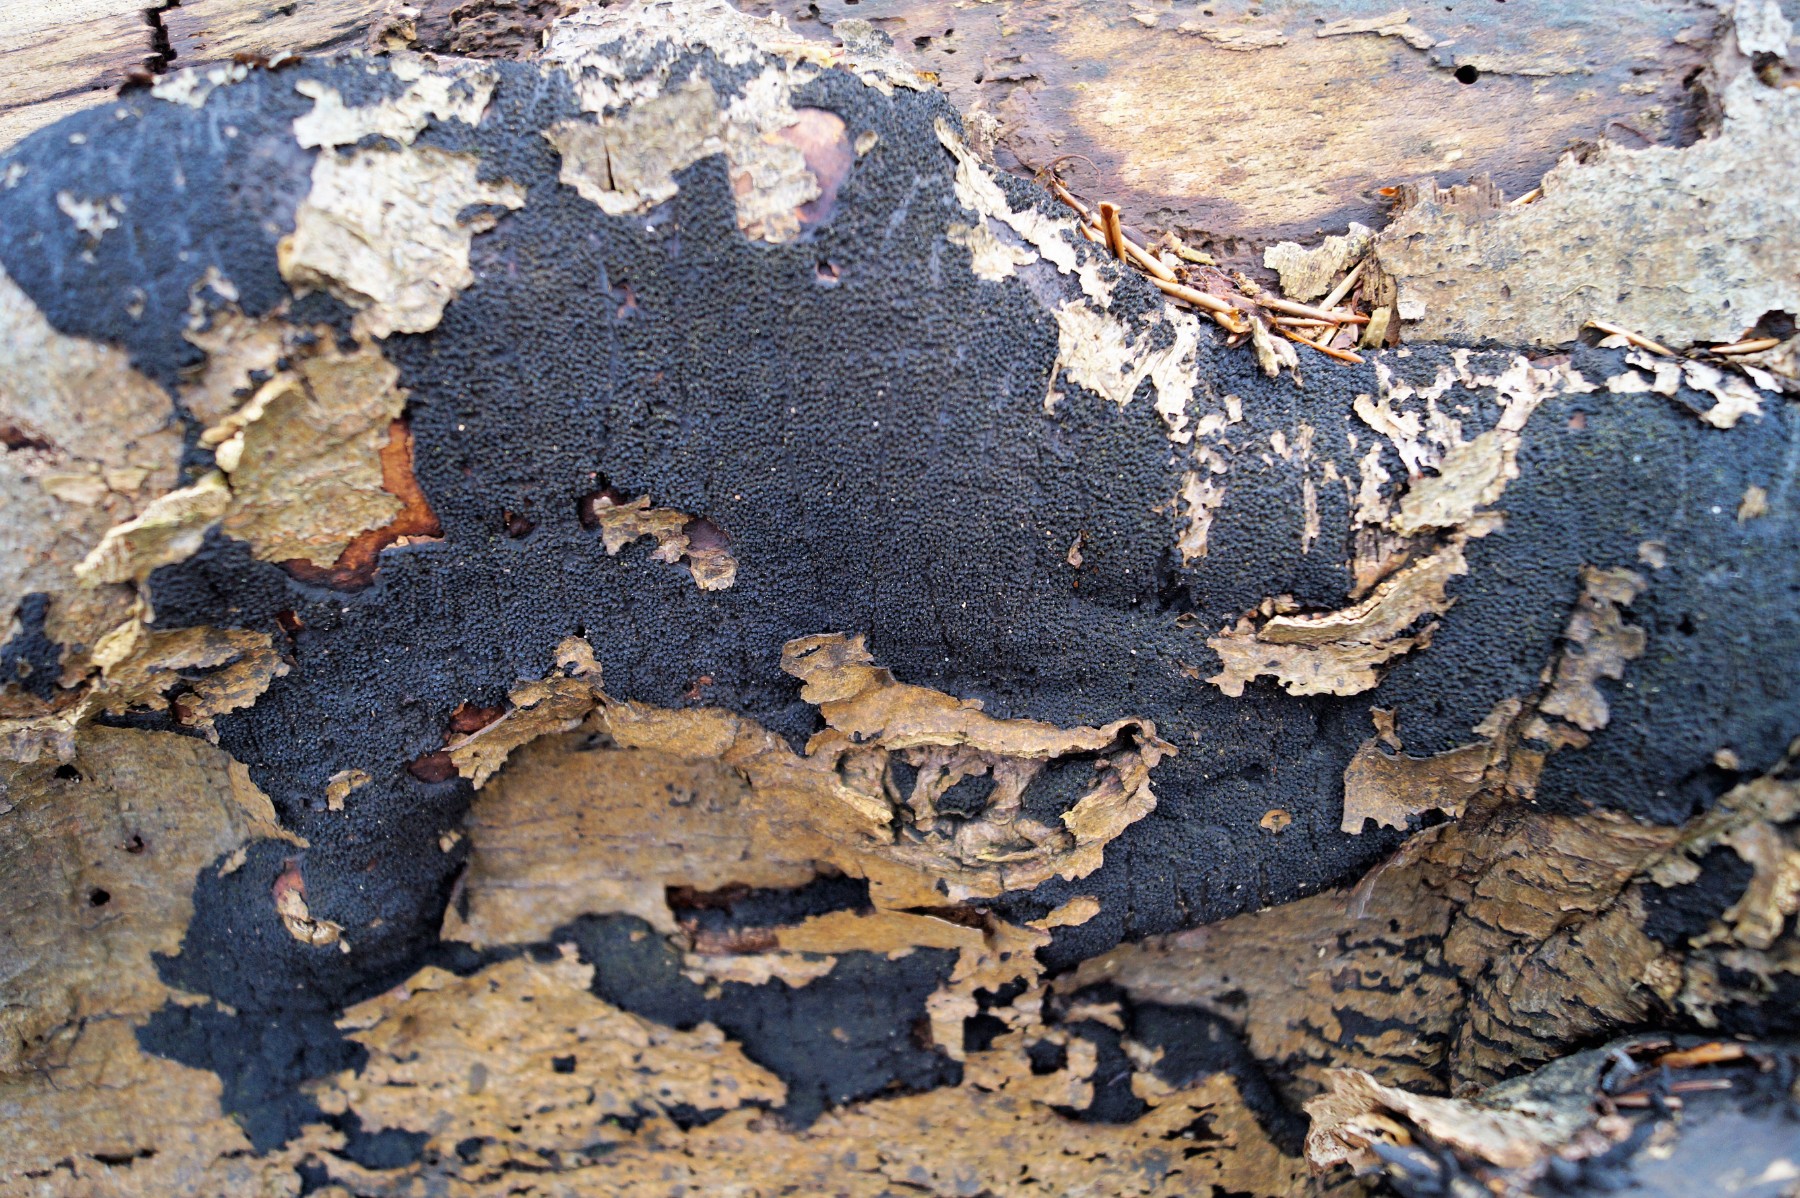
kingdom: Fungi
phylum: Ascomycota
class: Sordariomycetes
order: Xylariales
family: Diatrypaceae
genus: Eutypa
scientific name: Eutypa spinosa
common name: grov kulskorpe
